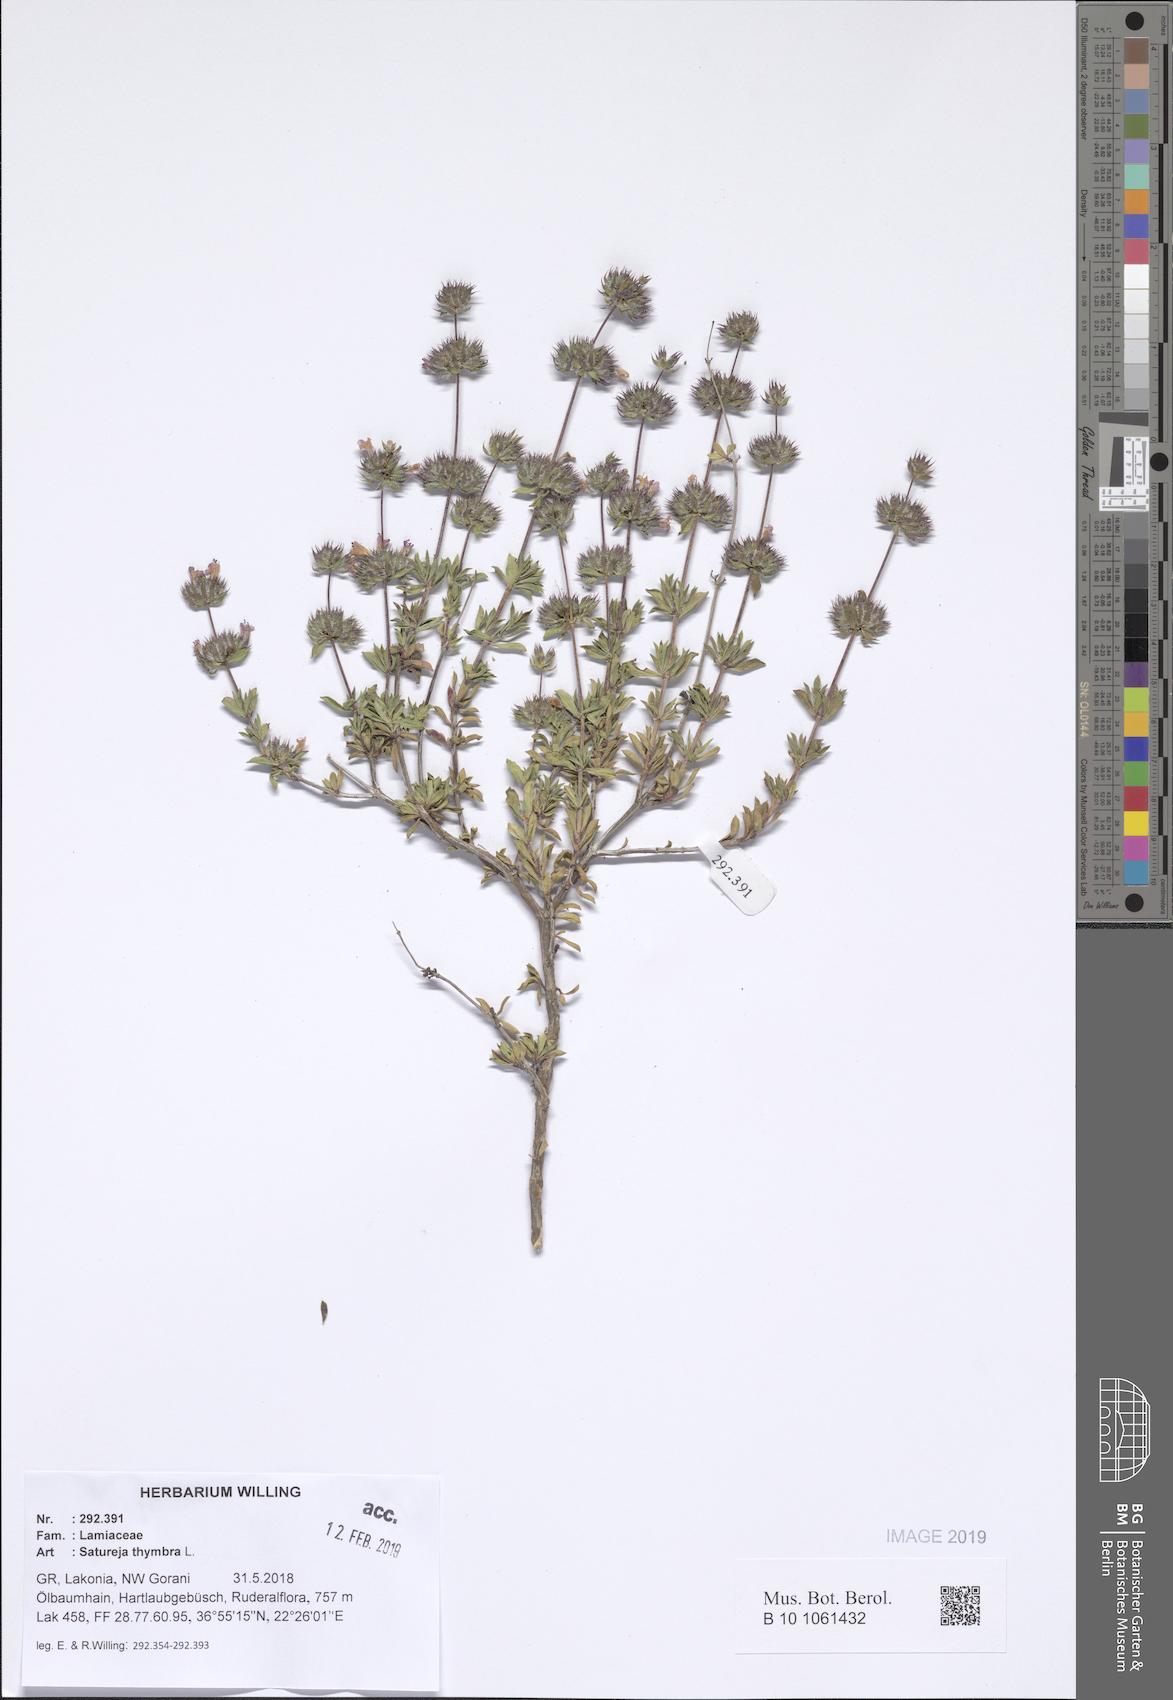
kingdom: Plantae
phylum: Tracheophyta
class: Magnoliopsida
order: Lamiales
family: Lamiaceae
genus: Satureja
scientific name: Satureja thymbra
